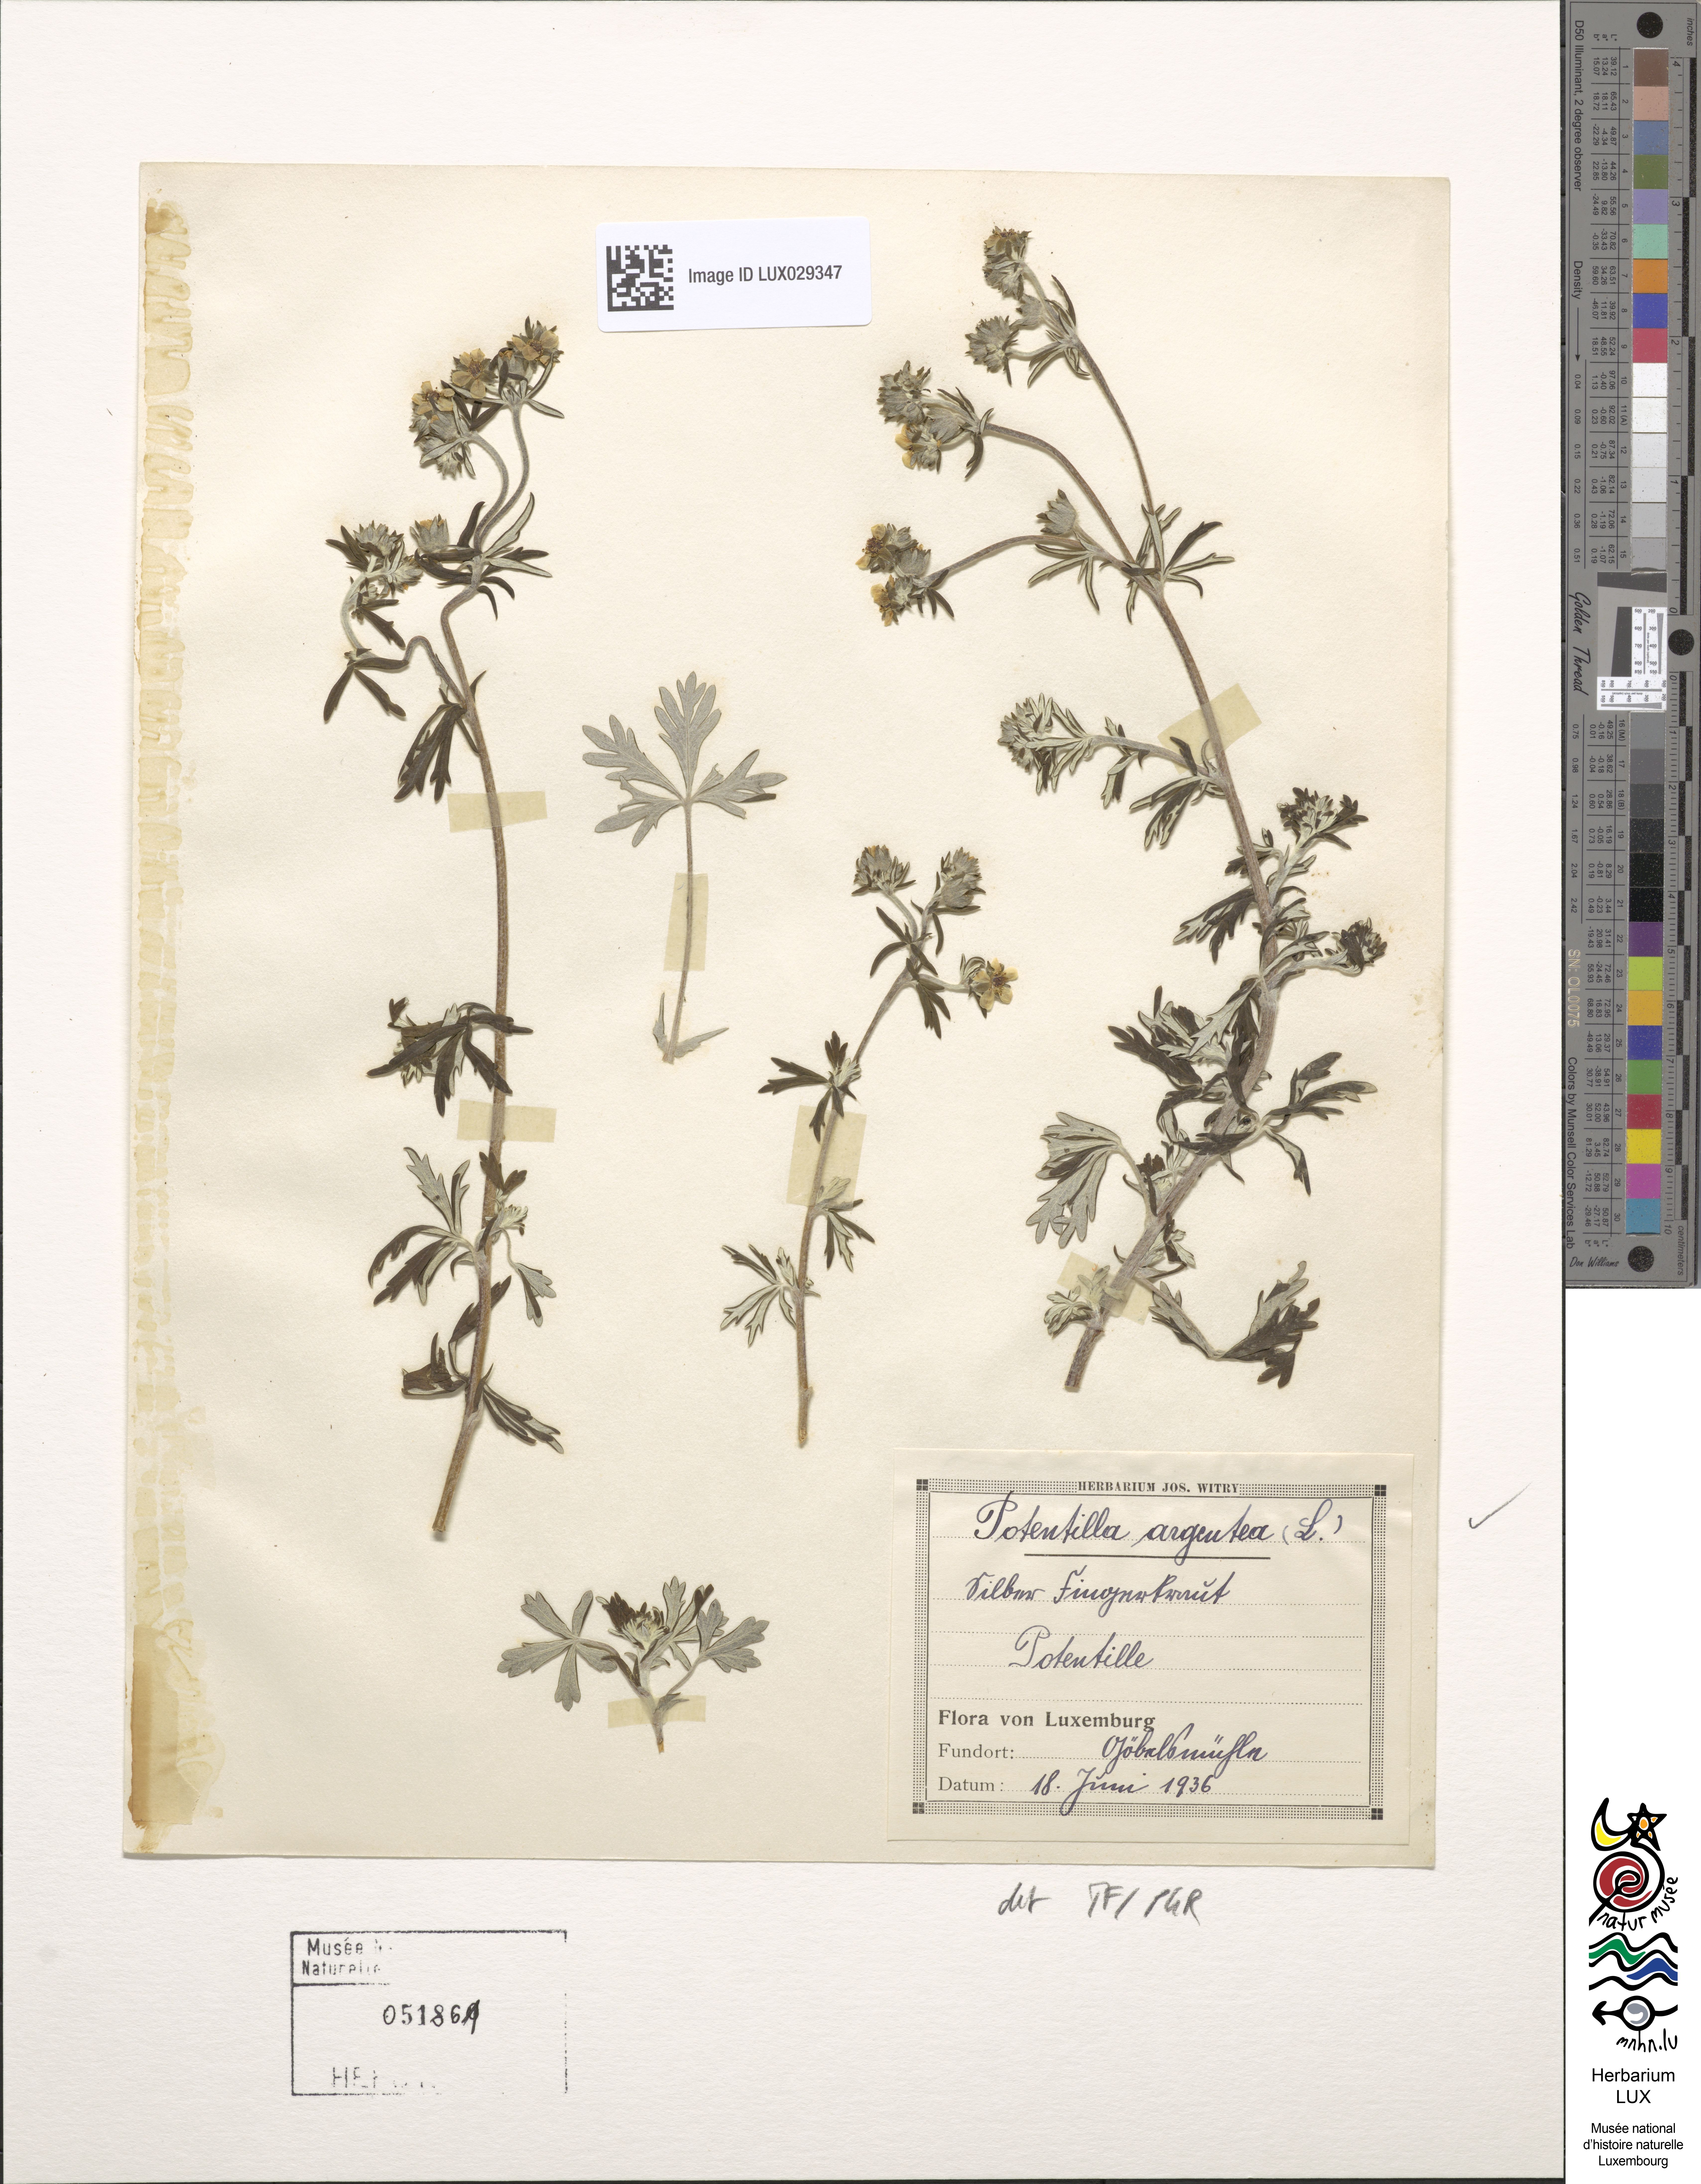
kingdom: Plantae
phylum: Tracheophyta
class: Magnoliopsida
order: Rosales
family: Rosaceae
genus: Potentilla
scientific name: Potentilla argentea
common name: Hoary cinquefoil
